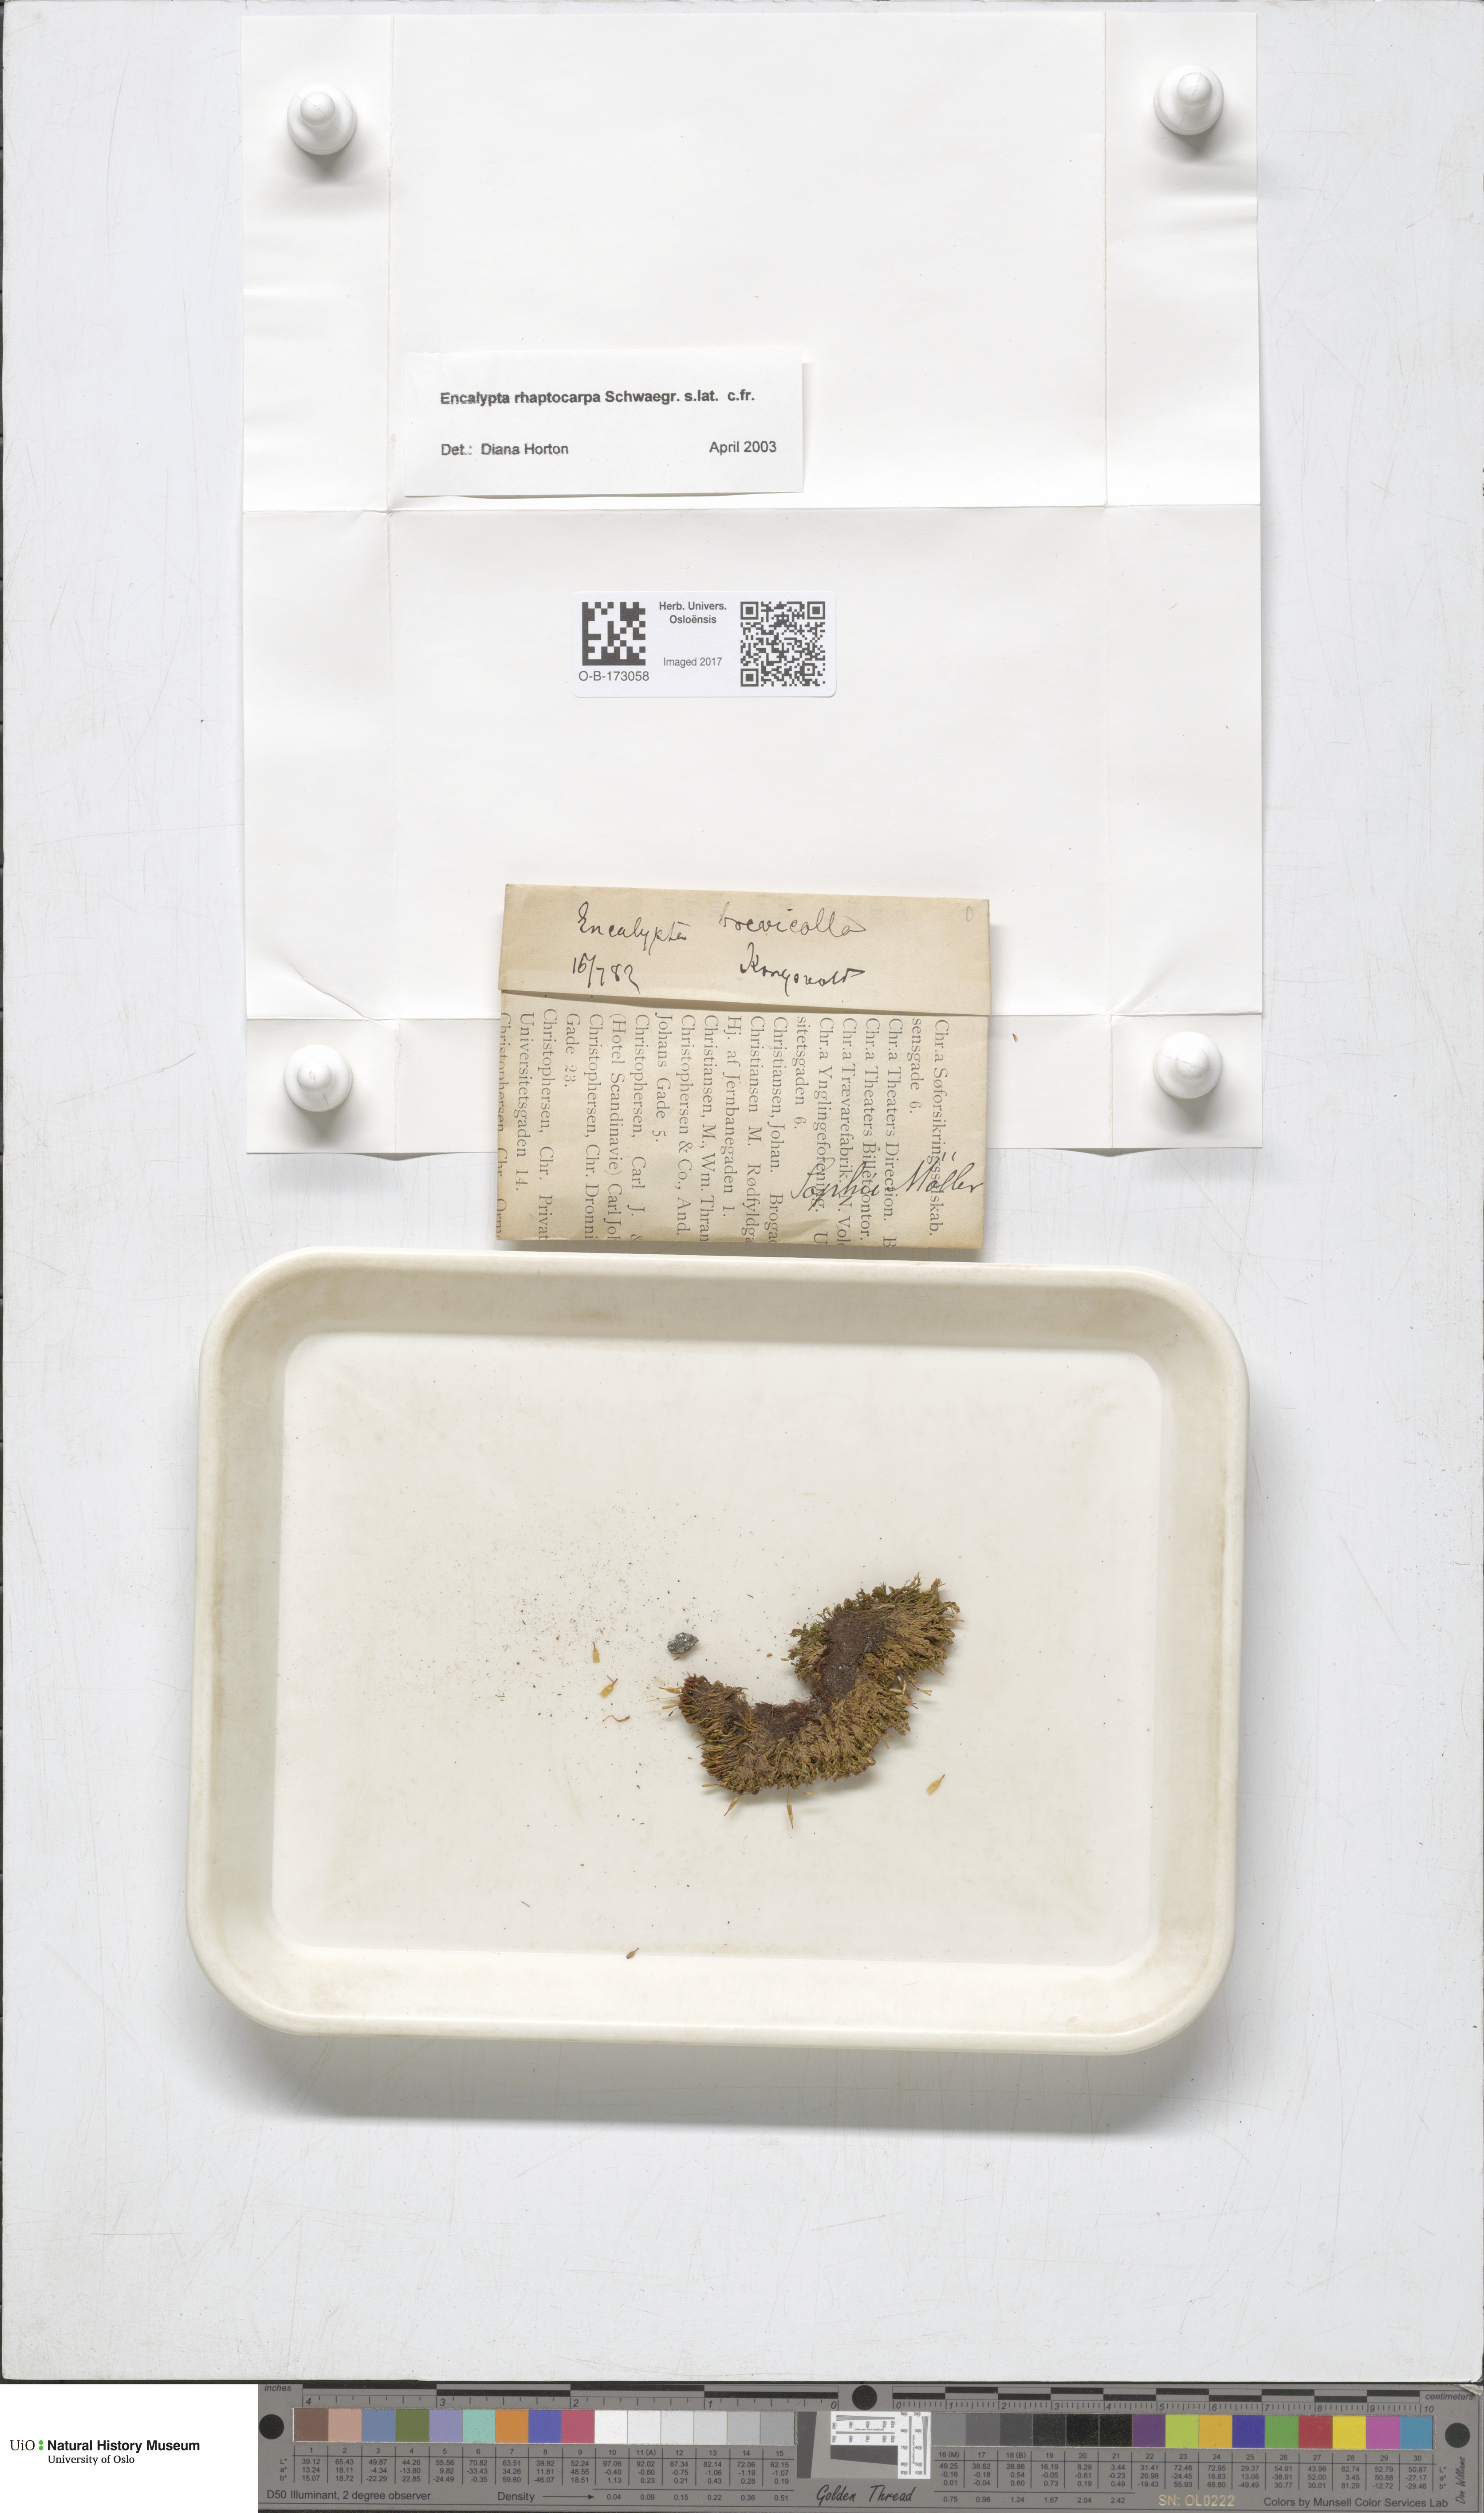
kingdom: Plantae
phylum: Bryophyta
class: Bryopsida
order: Encalyptales
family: Encalyptaceae
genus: Encalypta
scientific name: Encalypta rhaptocarpa
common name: Ribbed extinguisher moss
